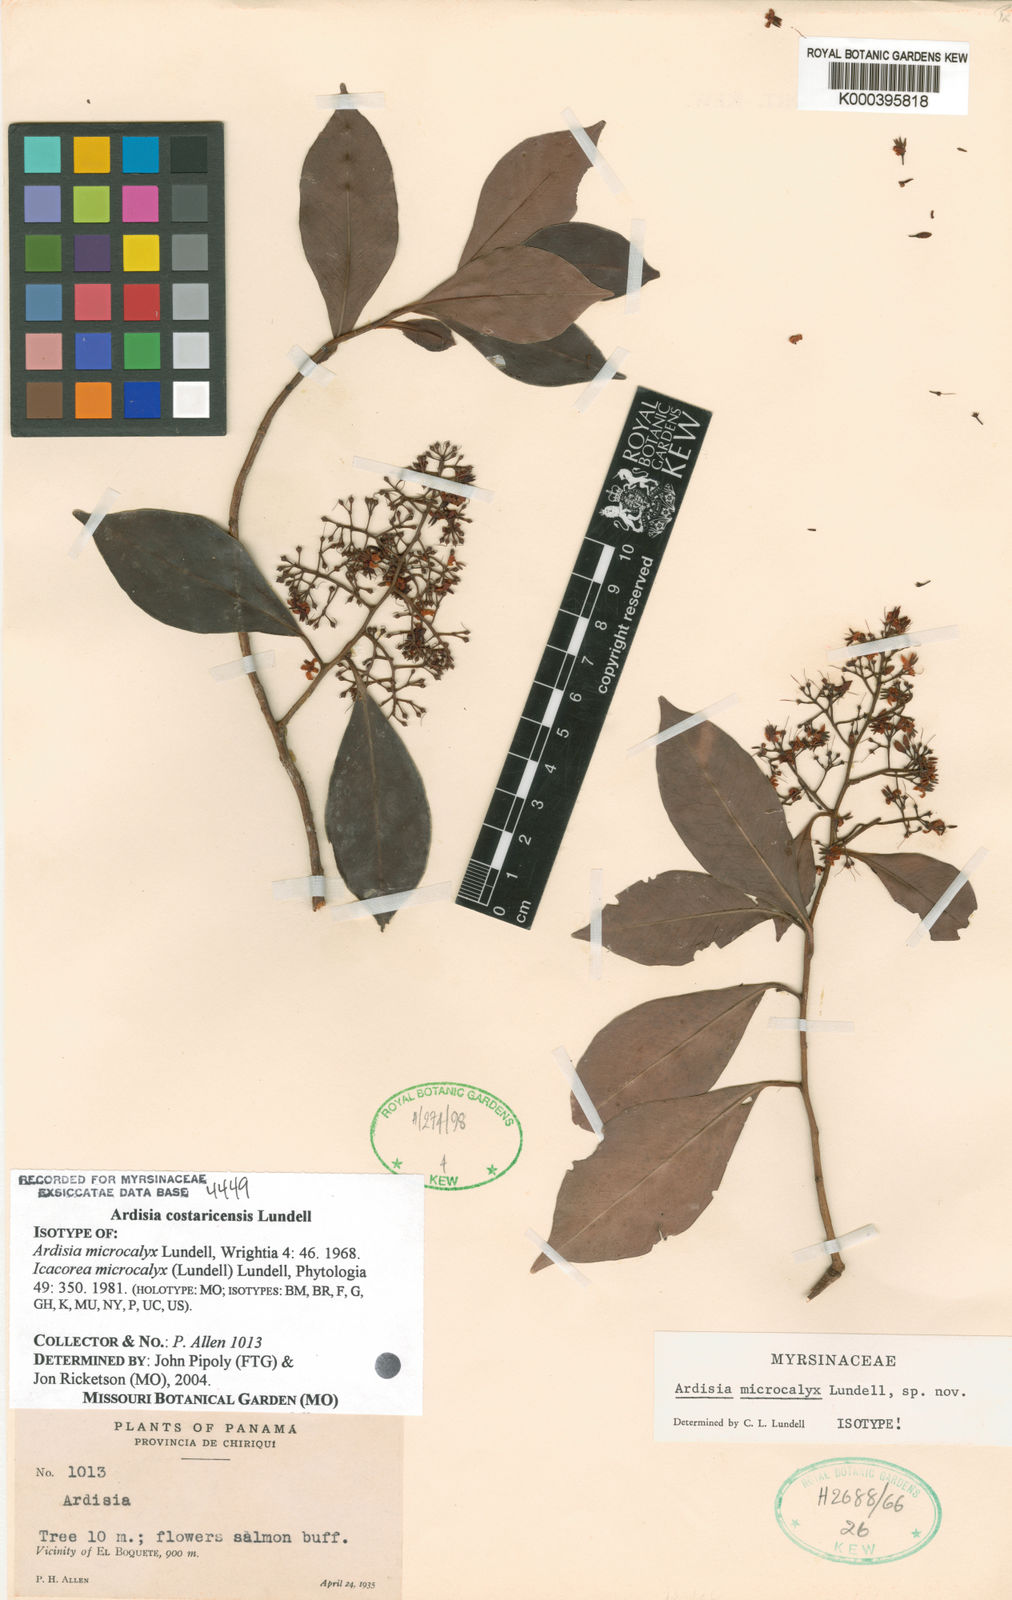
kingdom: Plantae
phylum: Tracheophyta
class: Magnoliopsida
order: Ericales
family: Primulaceae
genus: Ardisia
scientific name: Ardisia costaricensis
